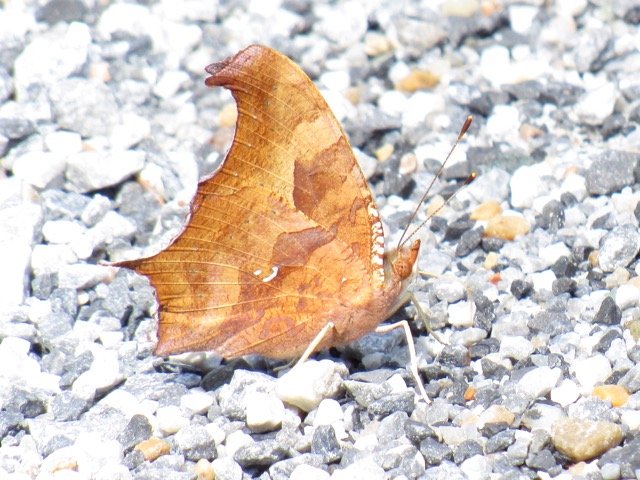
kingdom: Animalia
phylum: Arthropoda
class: Insecta
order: Lepidoptera
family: Nymphalidae
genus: Polygonia
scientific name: Polygonia interrogationis
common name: Question Mark
